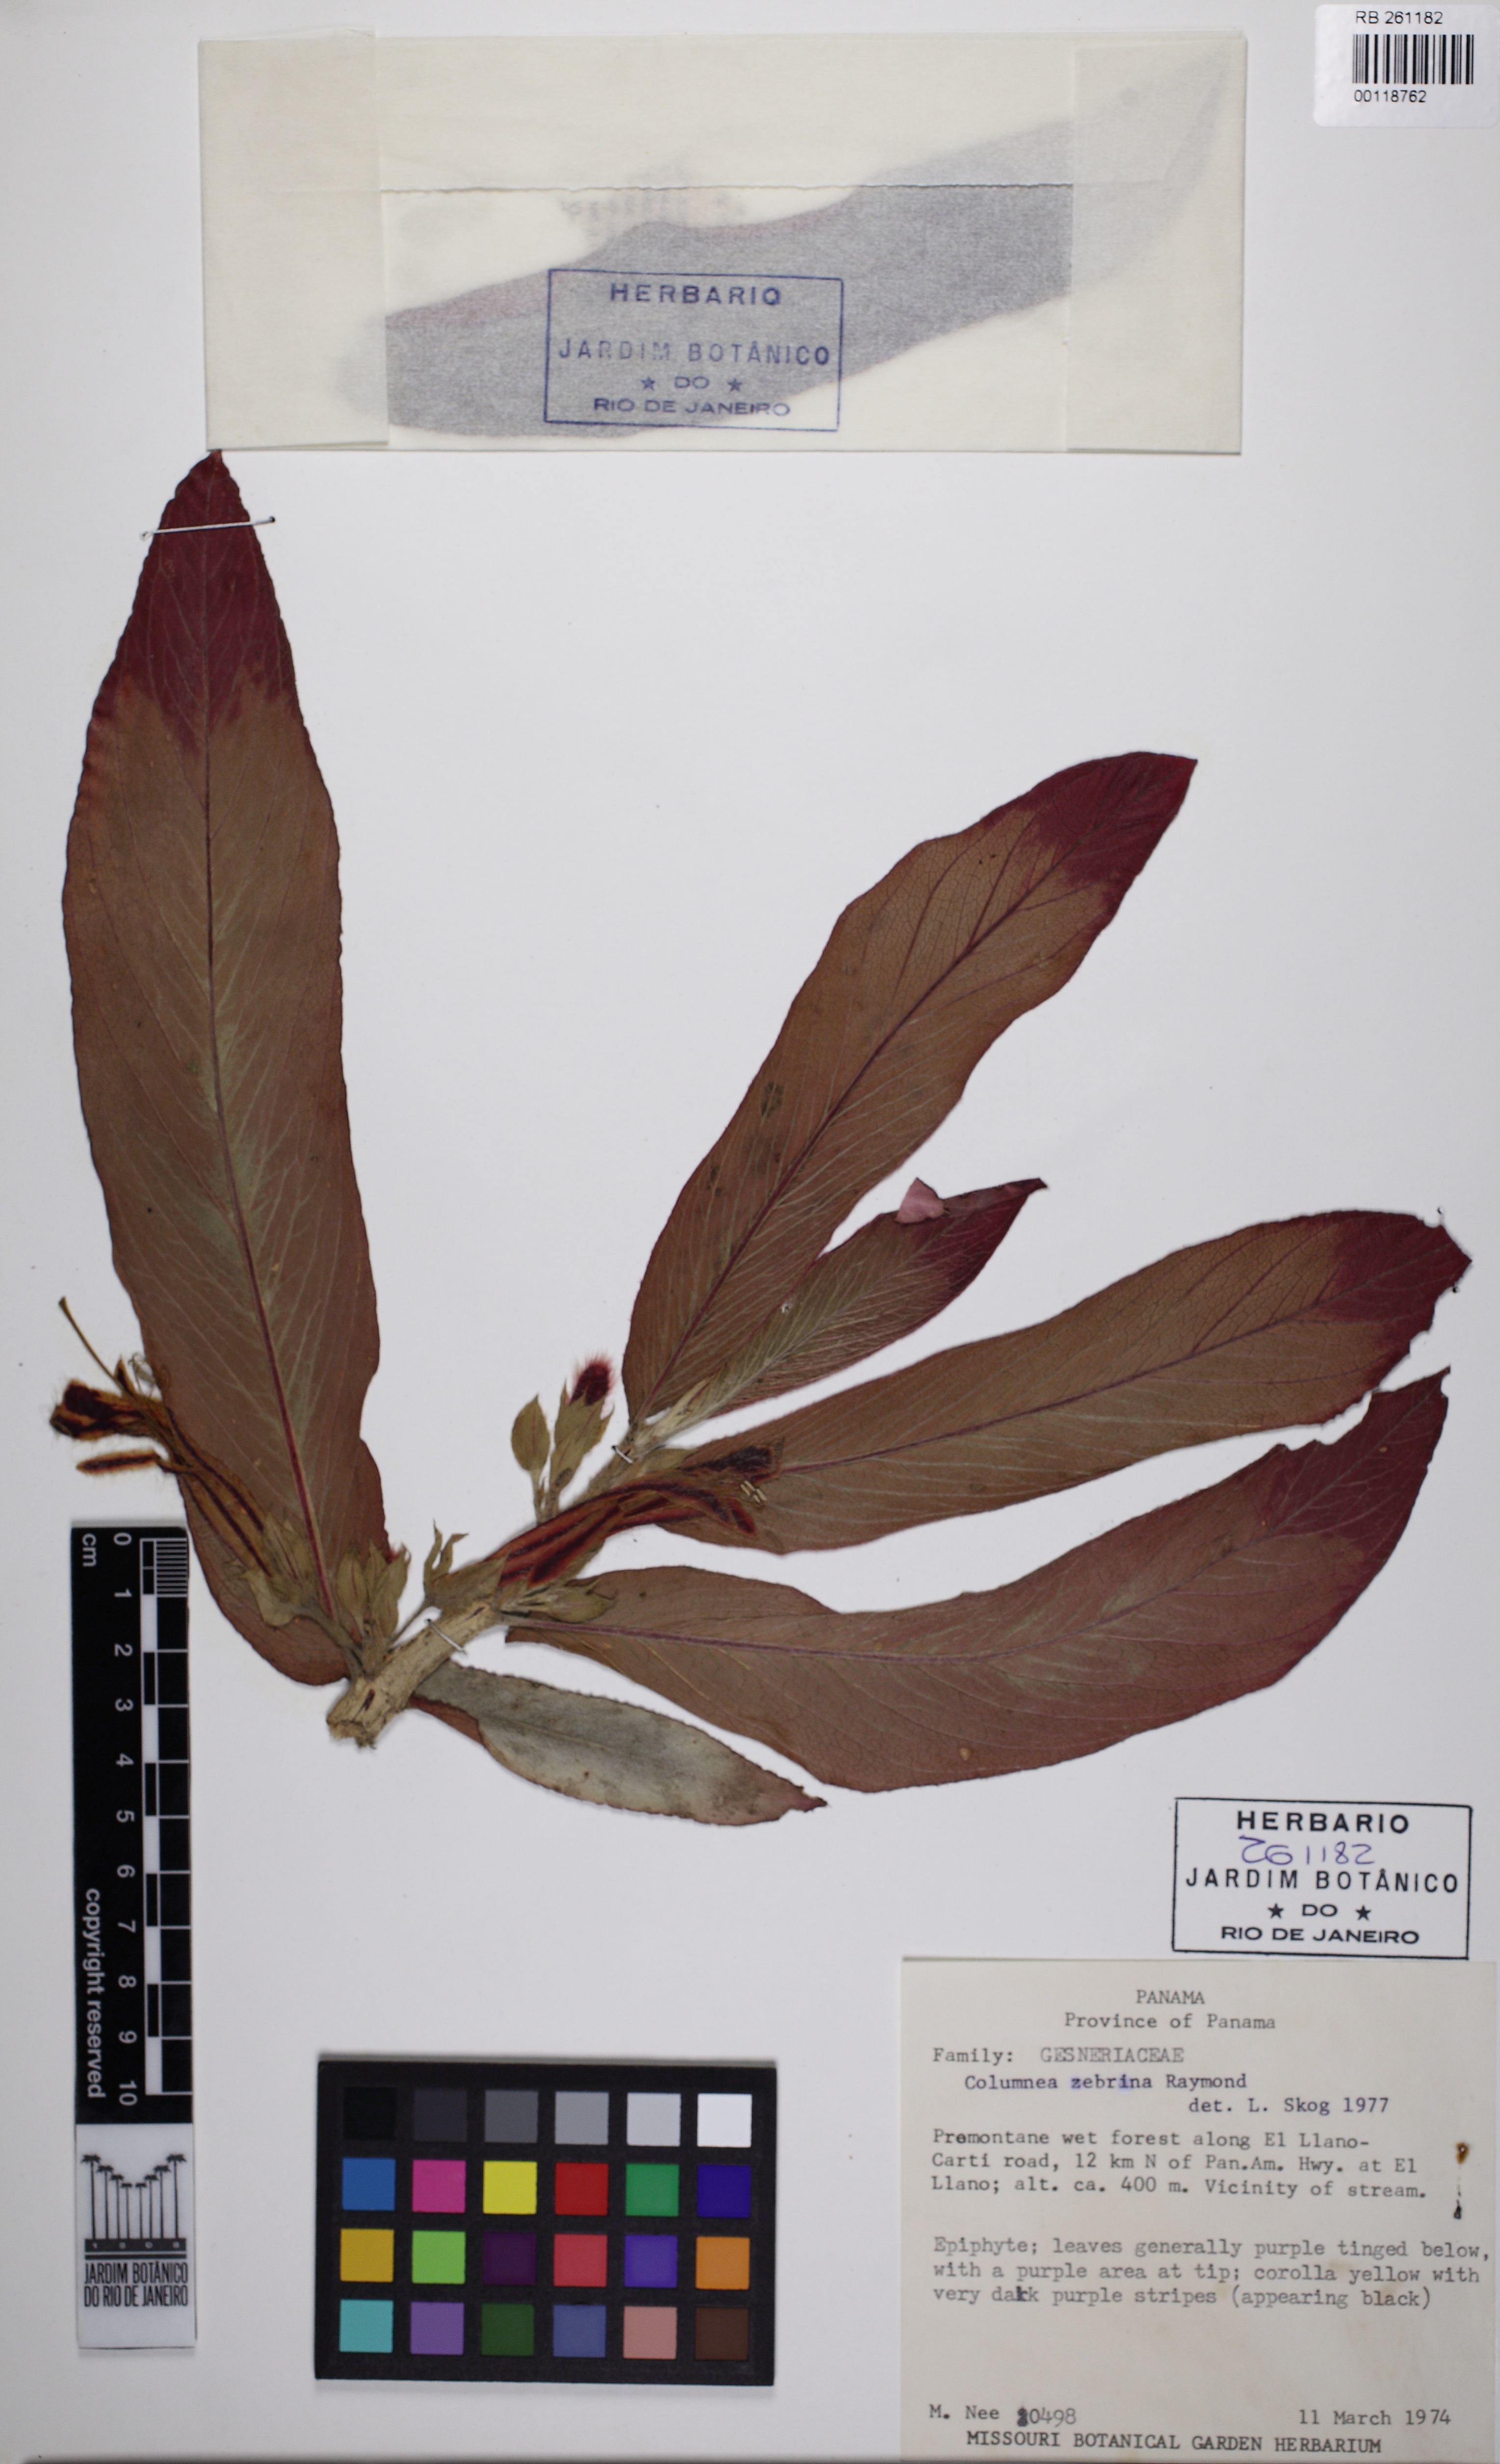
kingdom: Plantae
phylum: Tracheophyta
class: Magnoliopsida
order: Lamiales
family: Gesneriaceae
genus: Columnea
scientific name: Columnea zebrina
